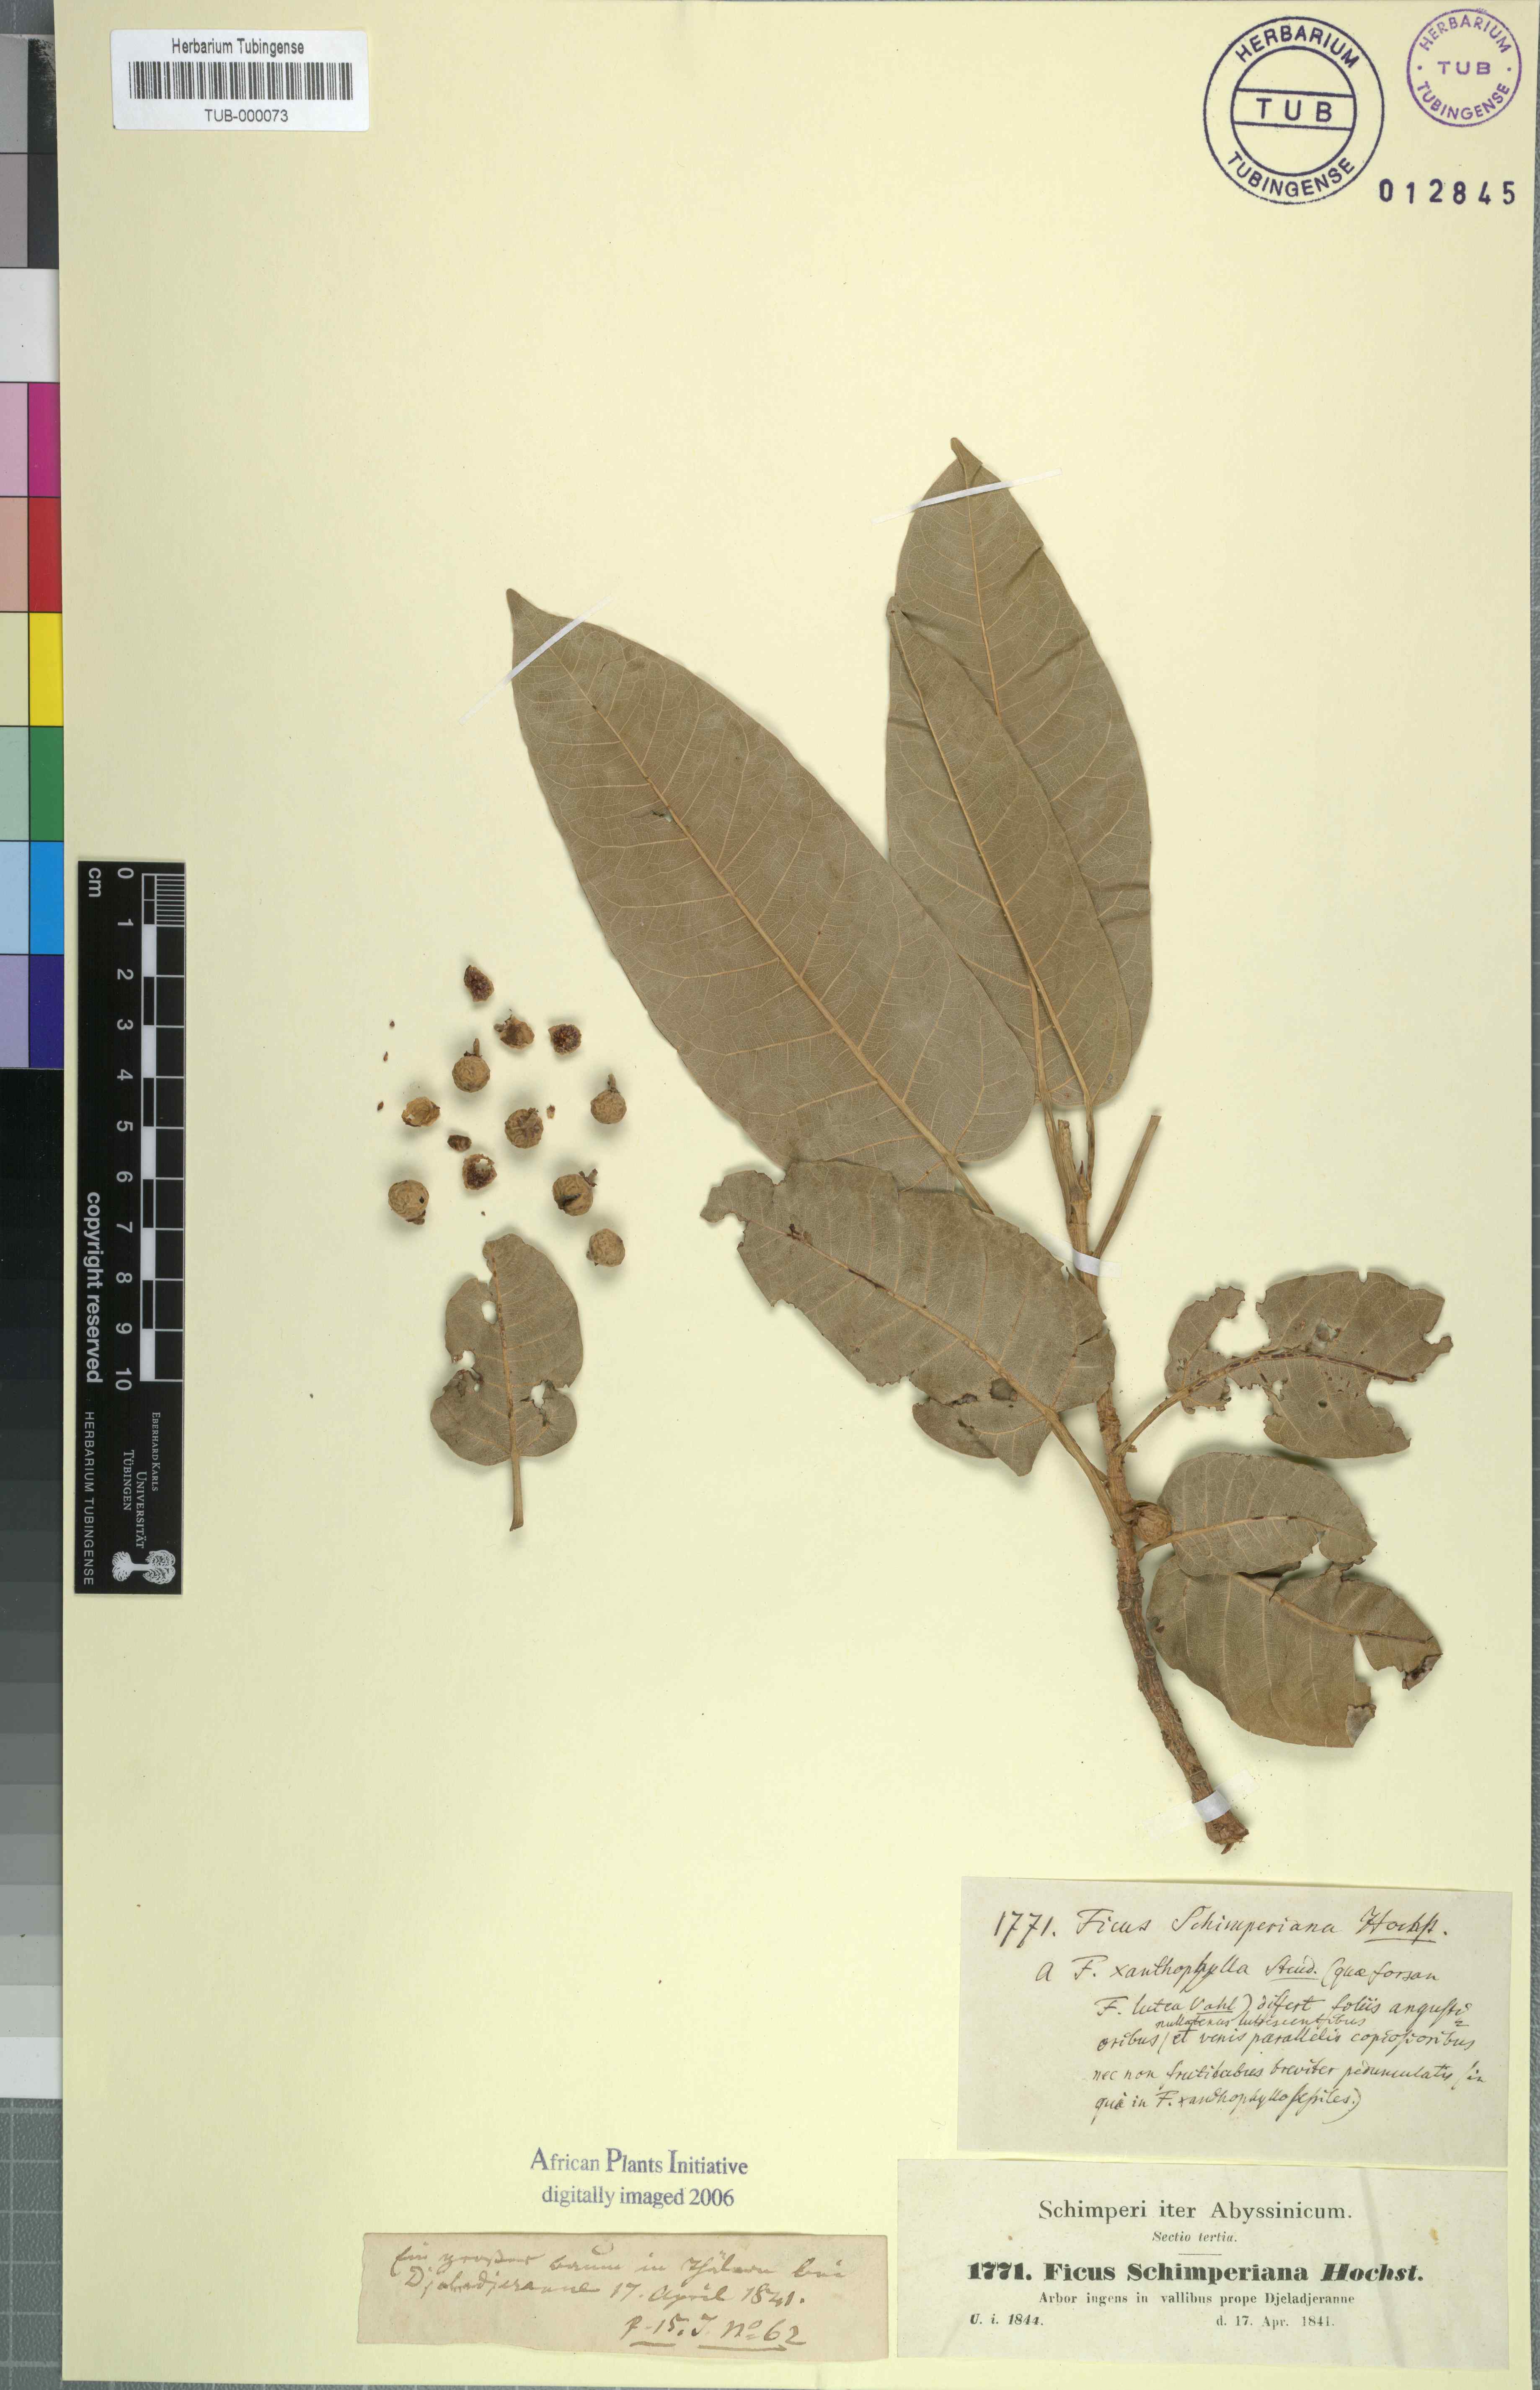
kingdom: Plantae
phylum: Tracheophyta
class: Magnoliopsida
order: Rosales
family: Moraceae
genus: Ficus
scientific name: Ficus ingens
